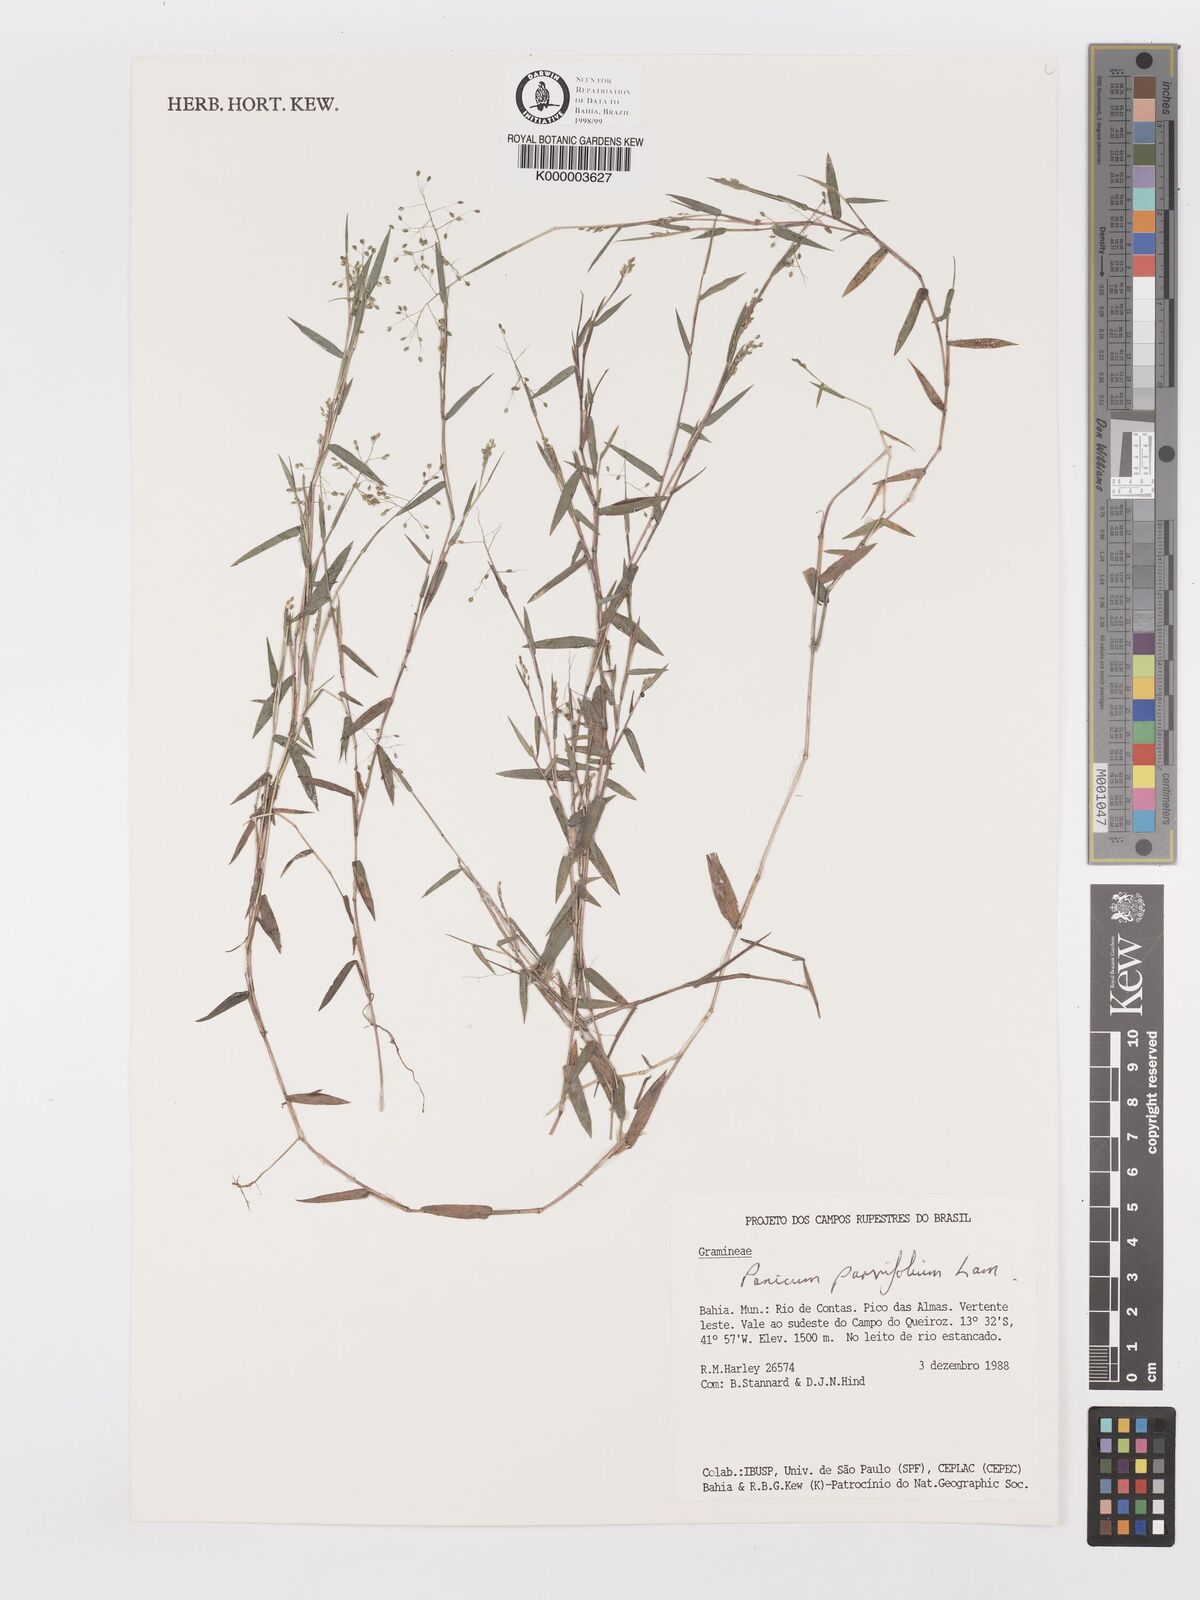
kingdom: Plantae
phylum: Tracheophyta
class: Liliopsida
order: Poales
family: Poaceae
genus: Trichanthecium
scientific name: Trichanthecium parvifolium
